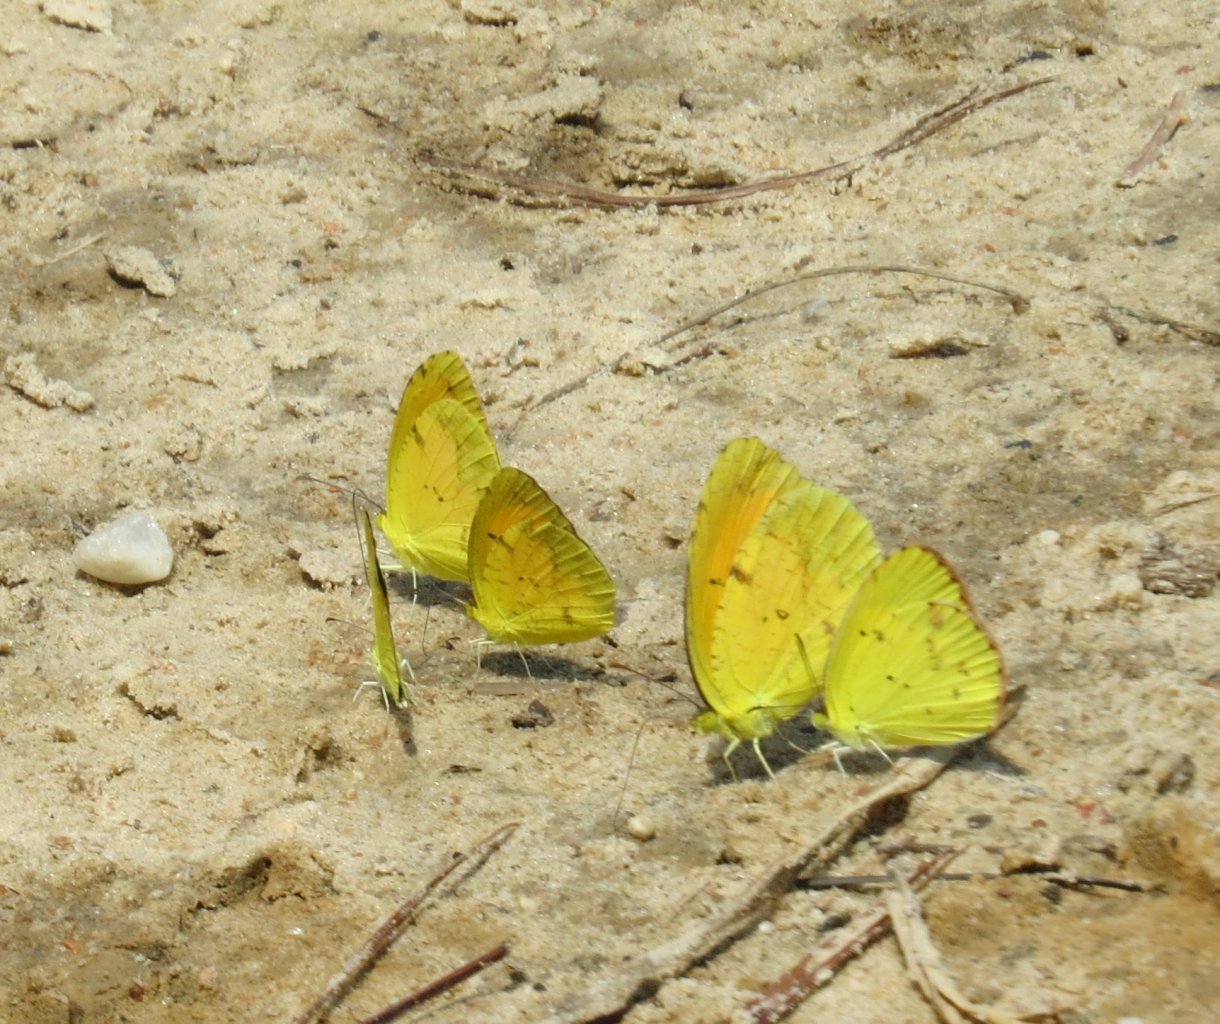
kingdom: Animalia
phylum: Arthropoda
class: Insecta
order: Lepidoptera
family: Pieridae
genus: Pyrisitia
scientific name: Pyrisitia lisa
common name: Little Yellow
